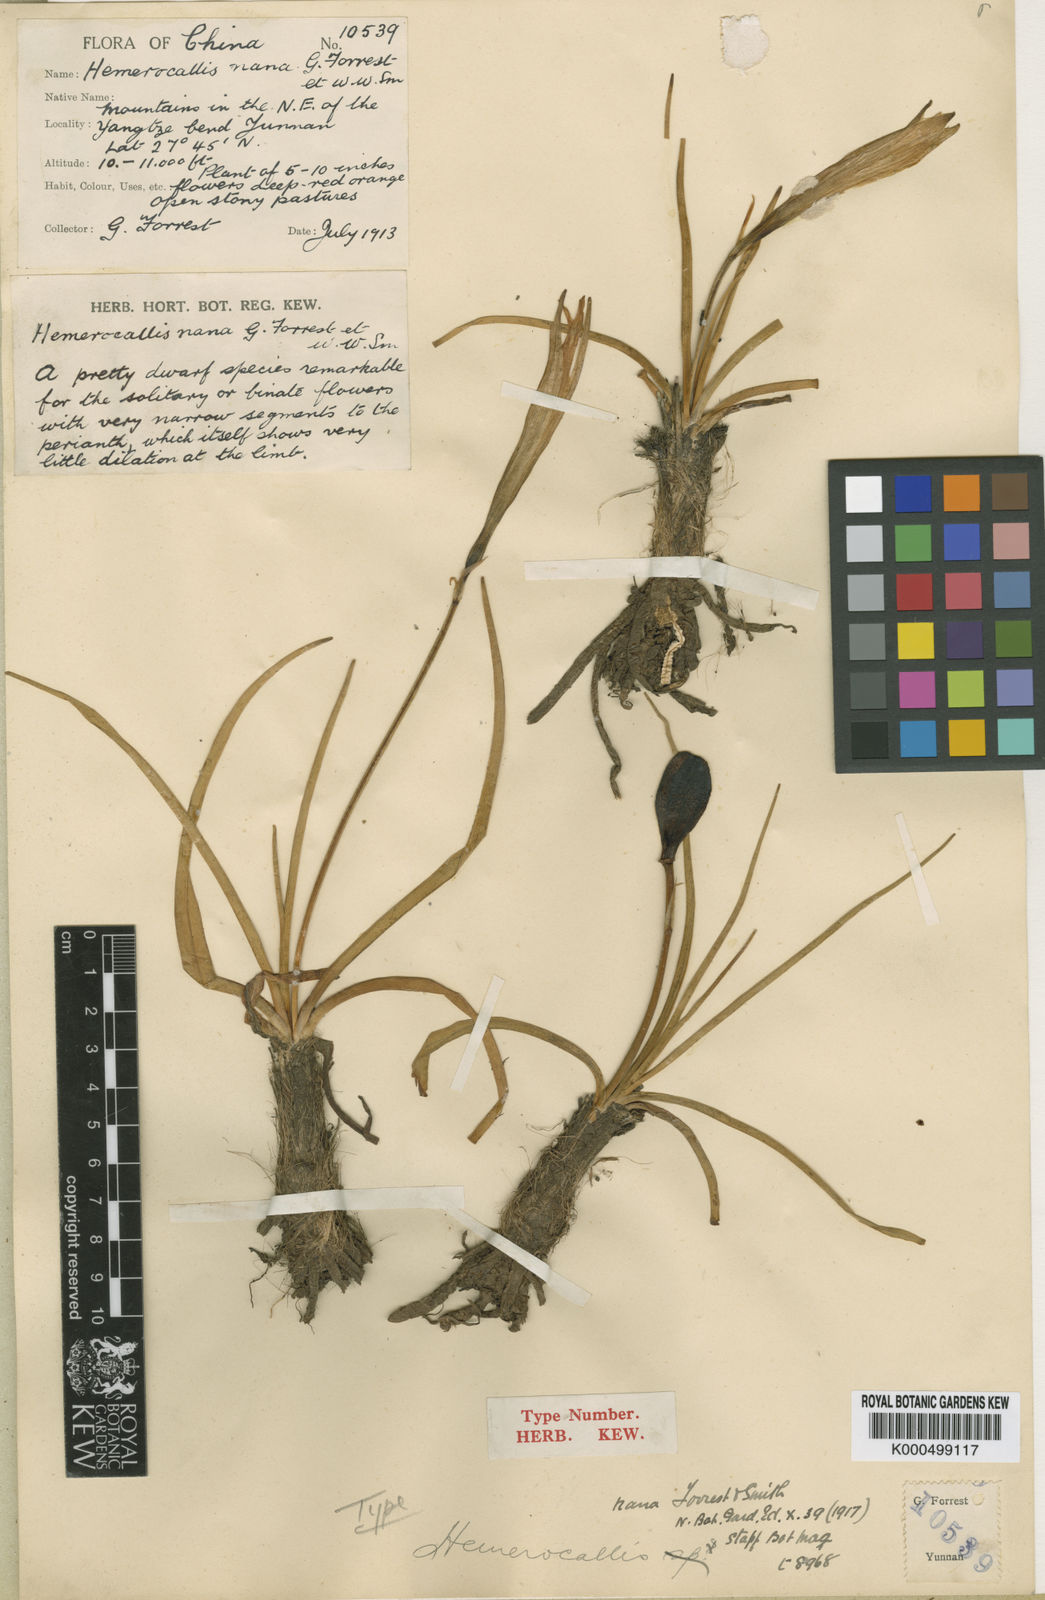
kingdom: Plantae
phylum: Tracheophyta
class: Liliopsida
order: Asparagales
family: Asphodelaceae
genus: Hemerocallis
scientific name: Hemerocallis nana
